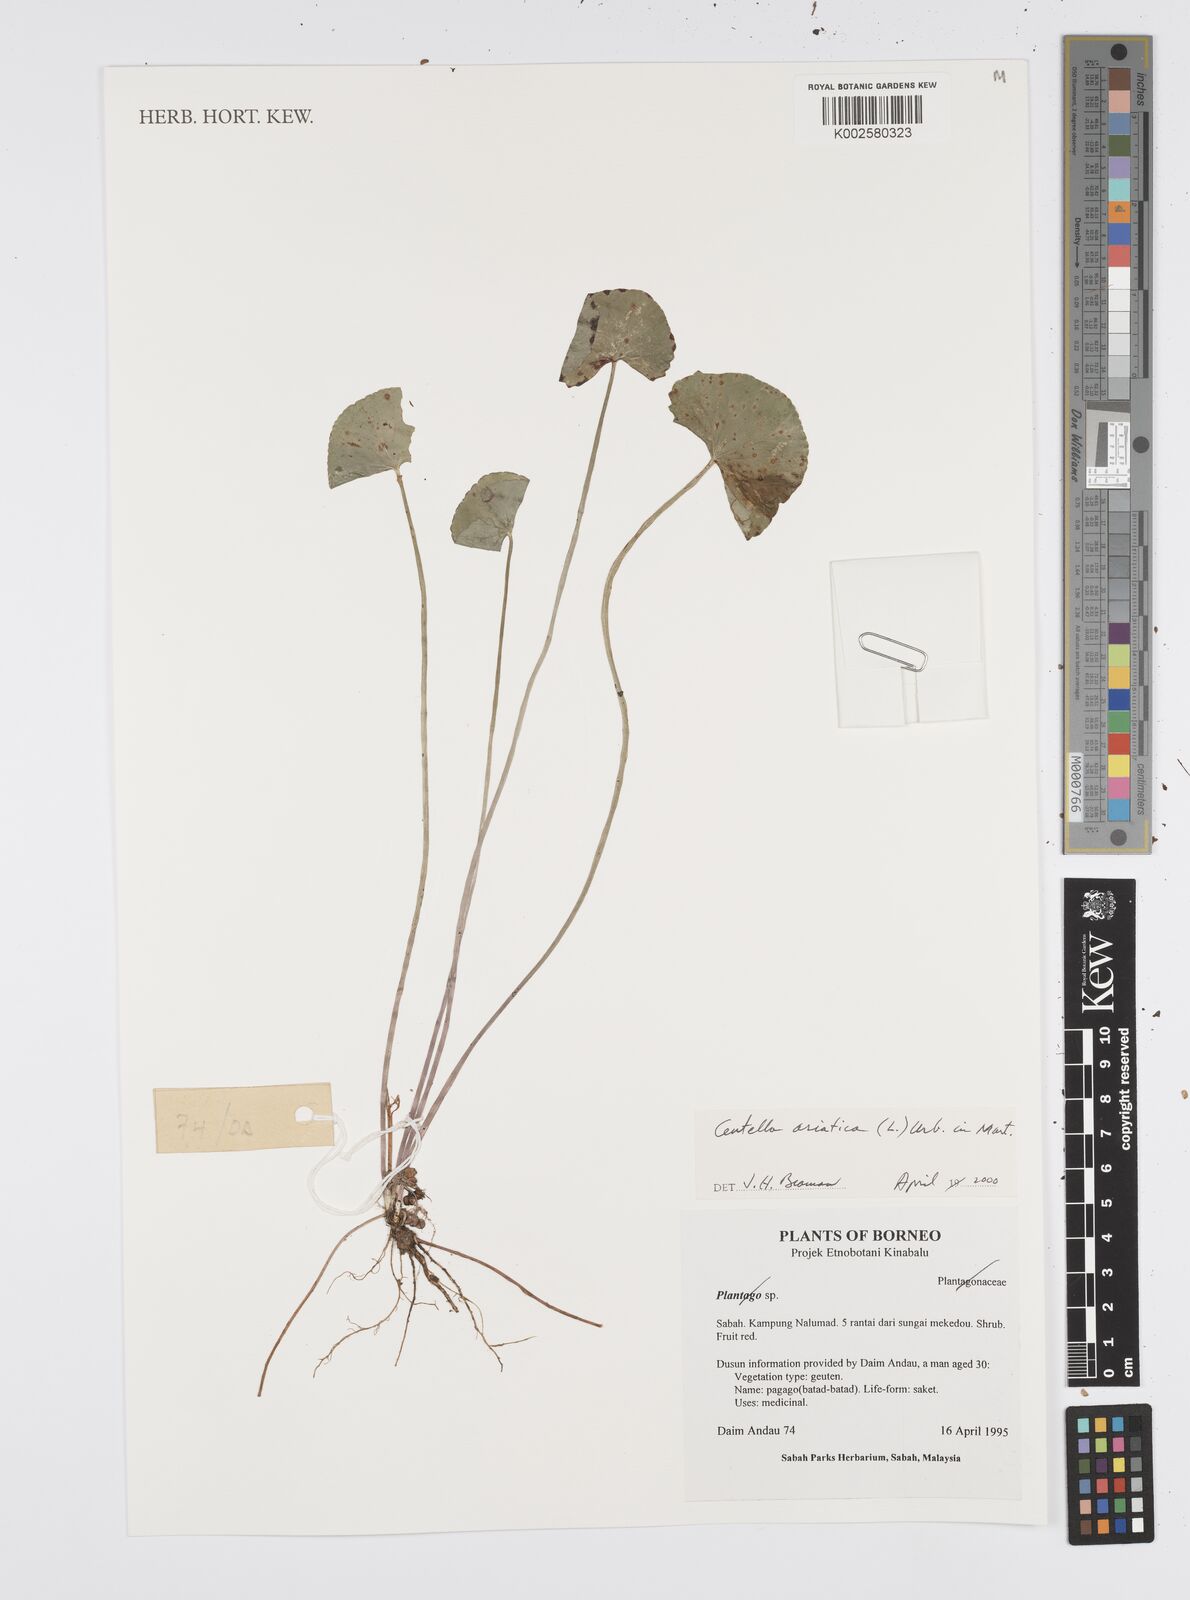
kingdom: Plantae
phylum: Tracheophyta
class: Magnoliopsida
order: Apiales
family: Apiaceae
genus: Centella
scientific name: Centella asiatica
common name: Spadeleaf
